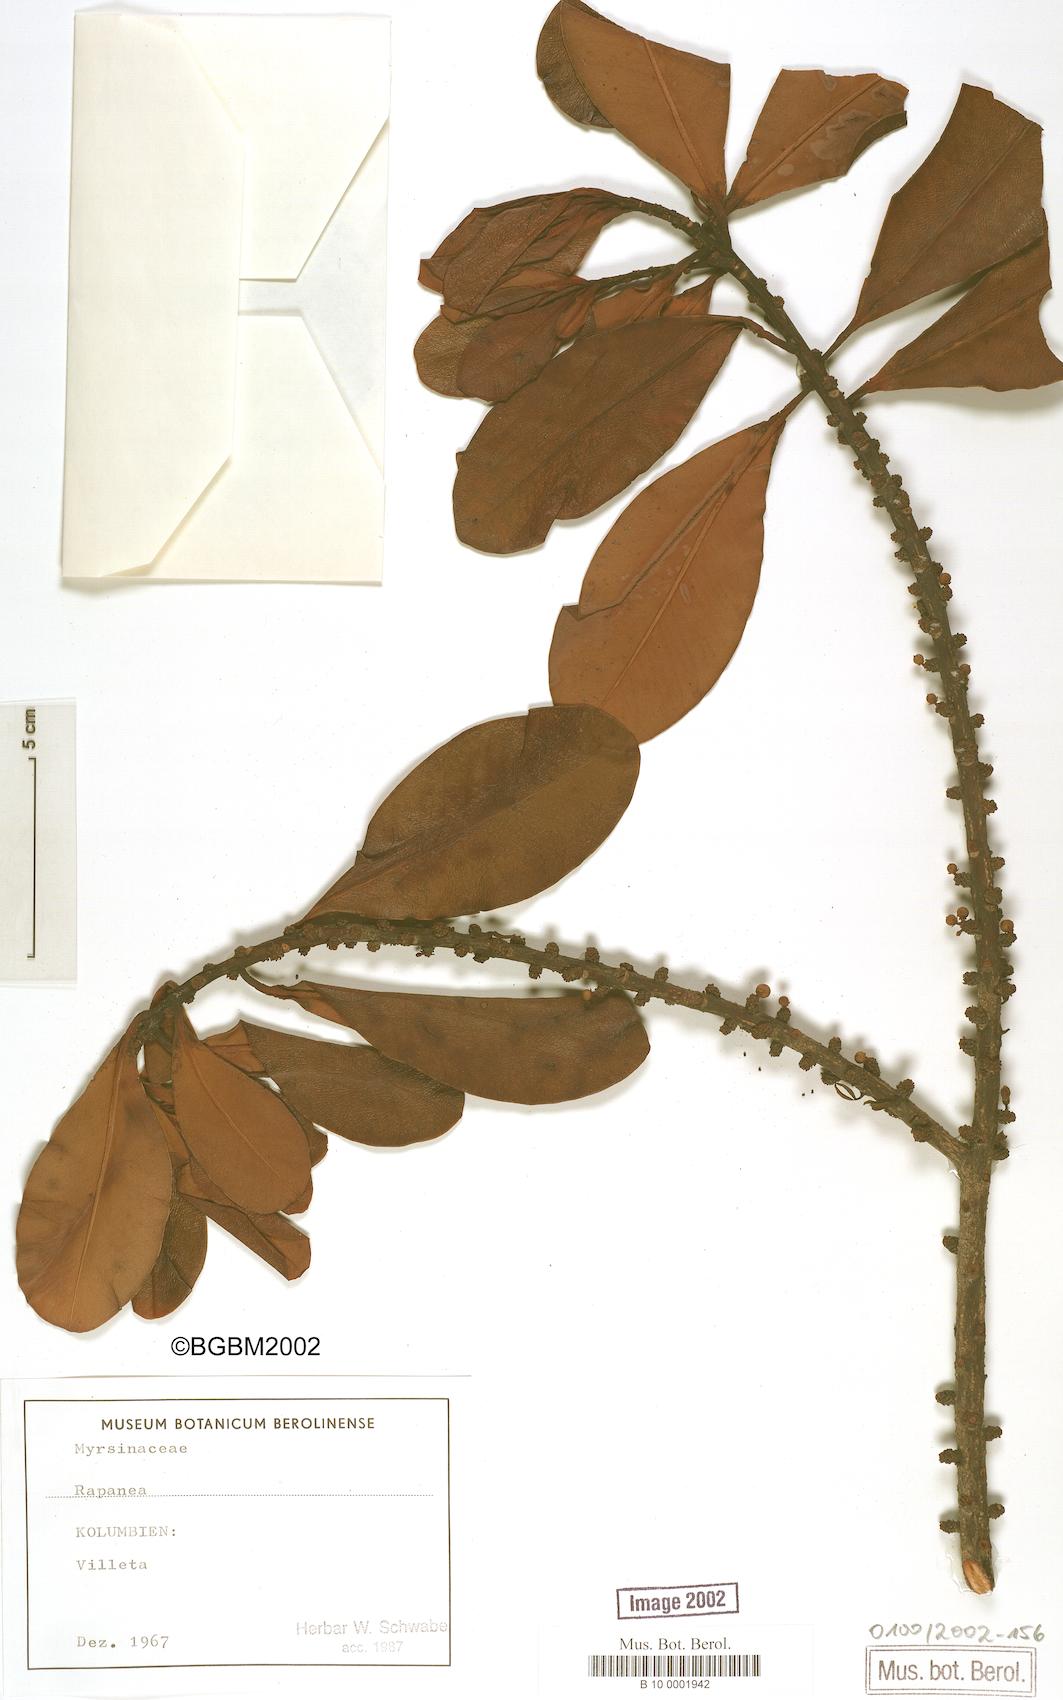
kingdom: Plantae
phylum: Tracheophyta
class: Magnoliopsida
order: Ericales
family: Primulaceae
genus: Myrsine
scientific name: Myrsine
